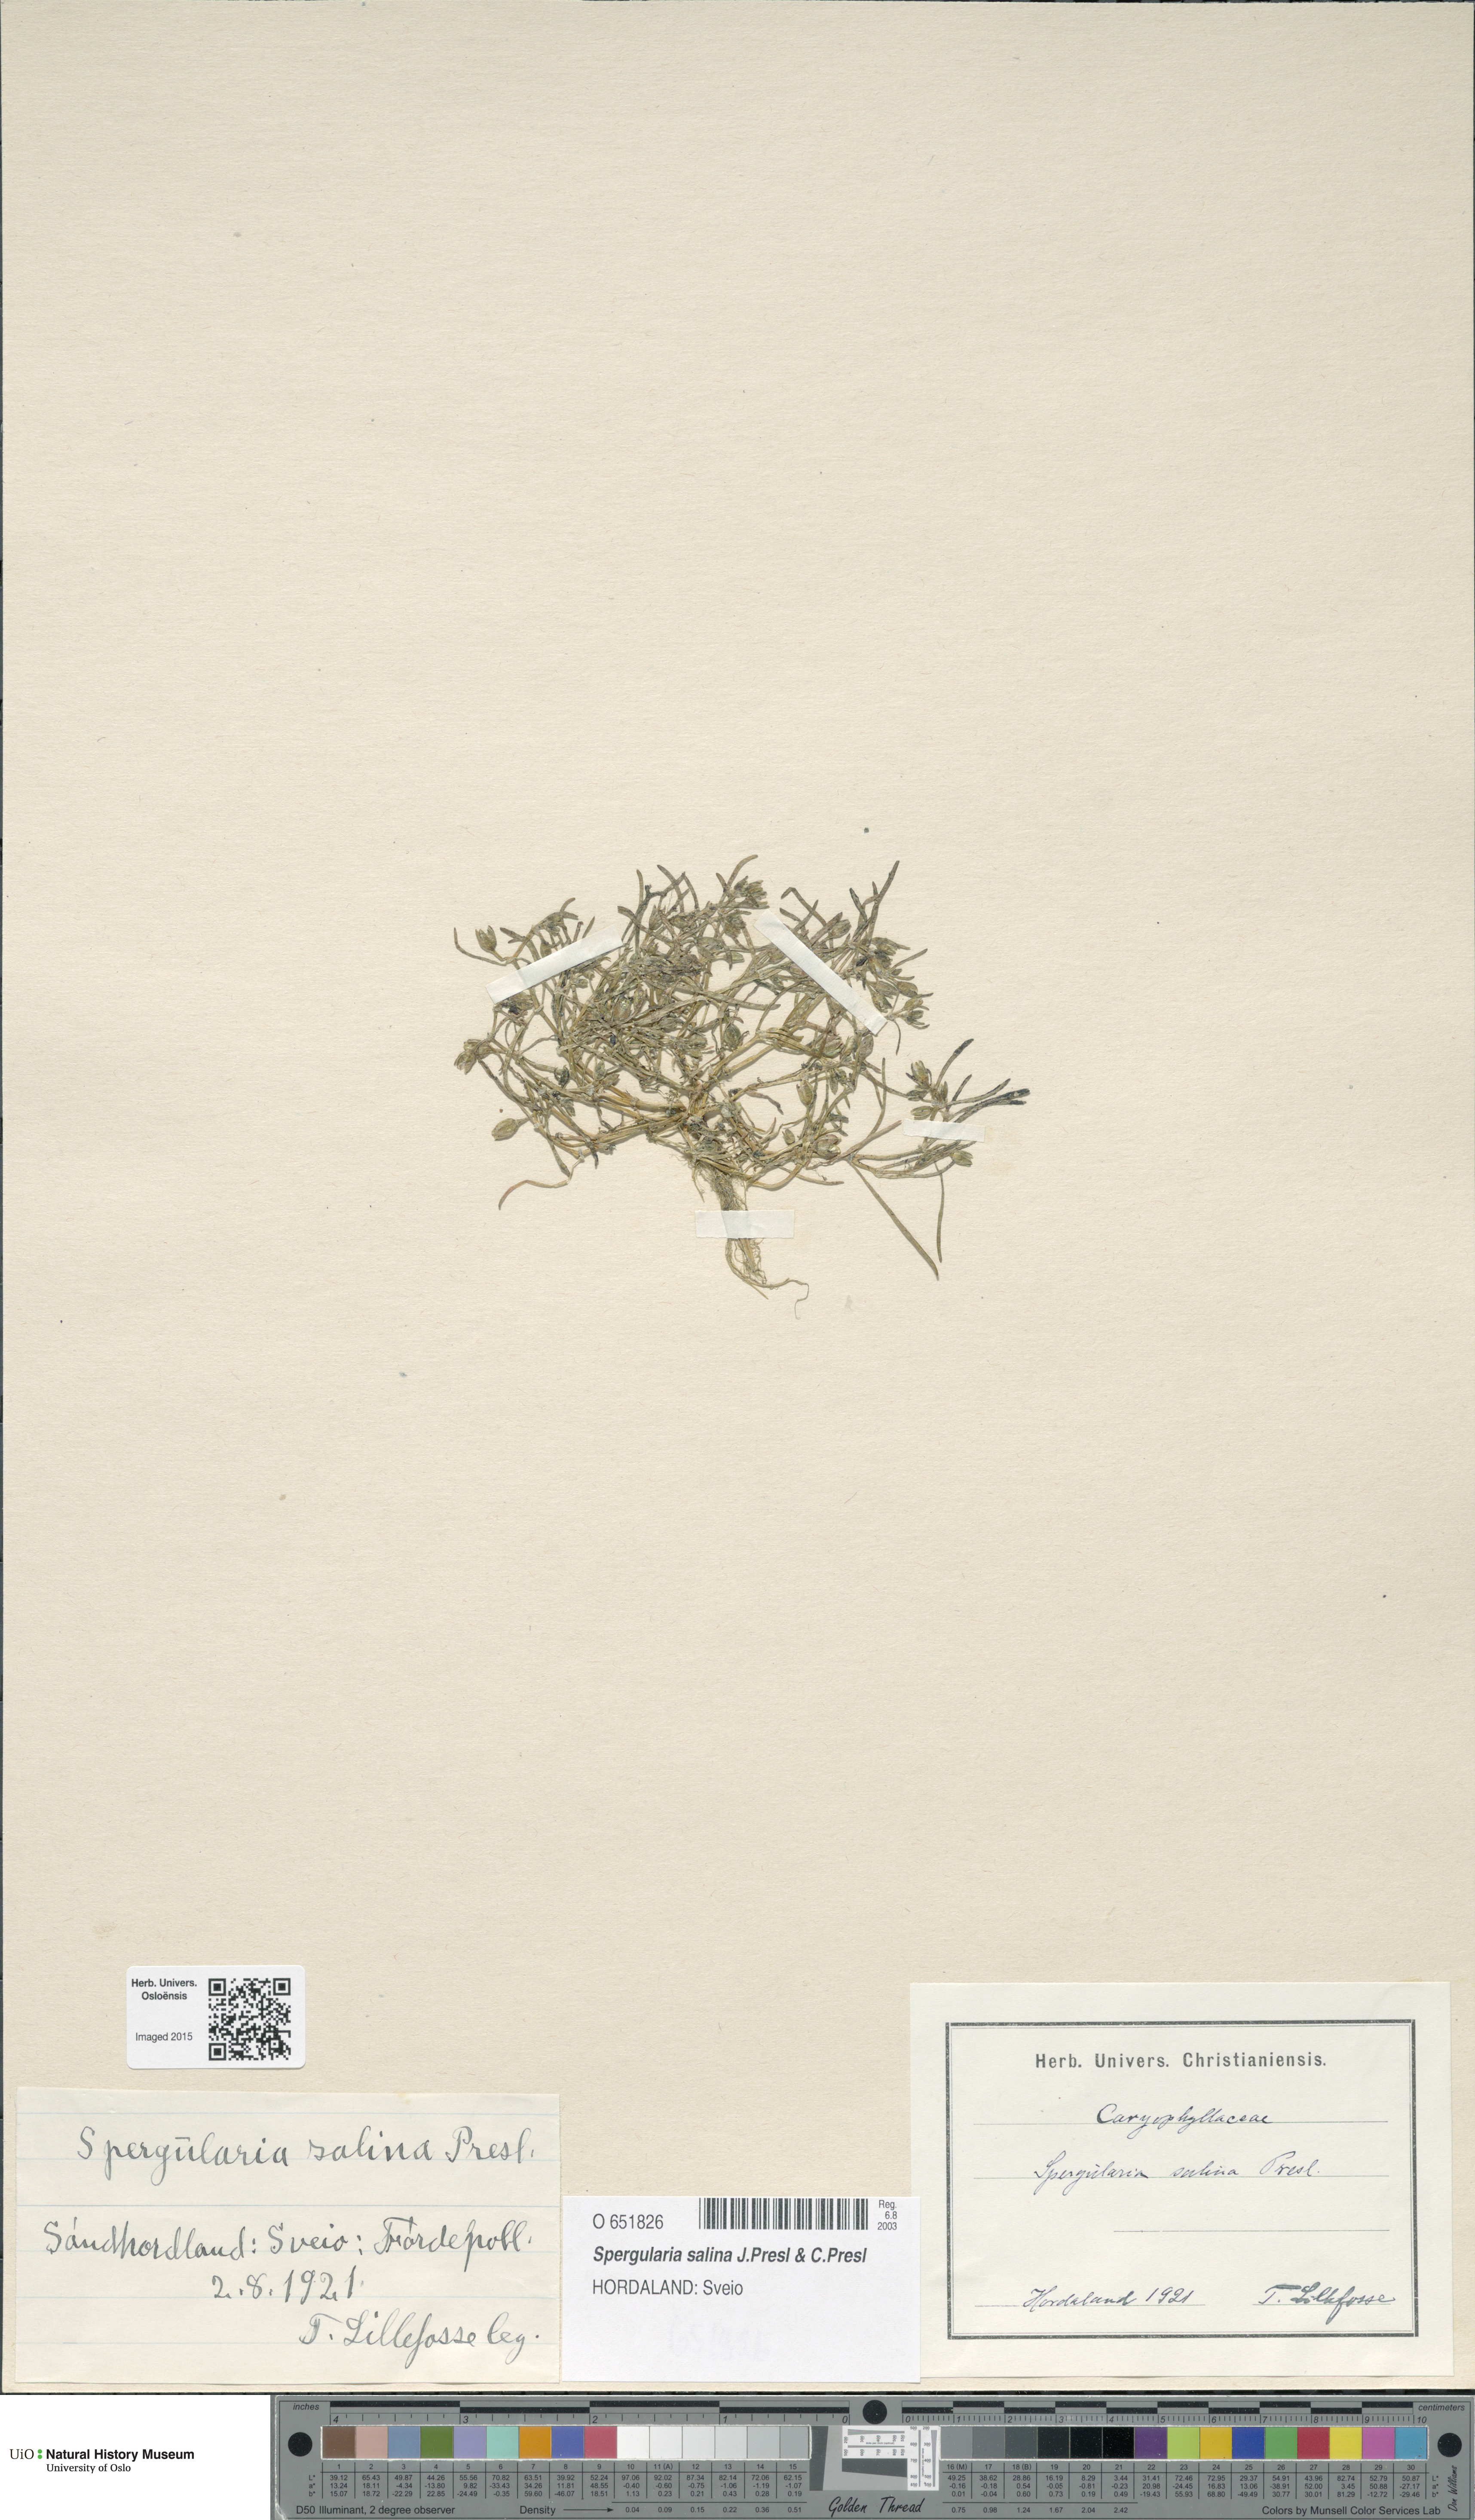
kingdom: Plantae
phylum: Tracheophyta
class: Magnoliopsida
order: Caryophyllales
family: Caryophyllaceae
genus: Spergularia
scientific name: Spergularia marina
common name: Lesser sea-spurrey
